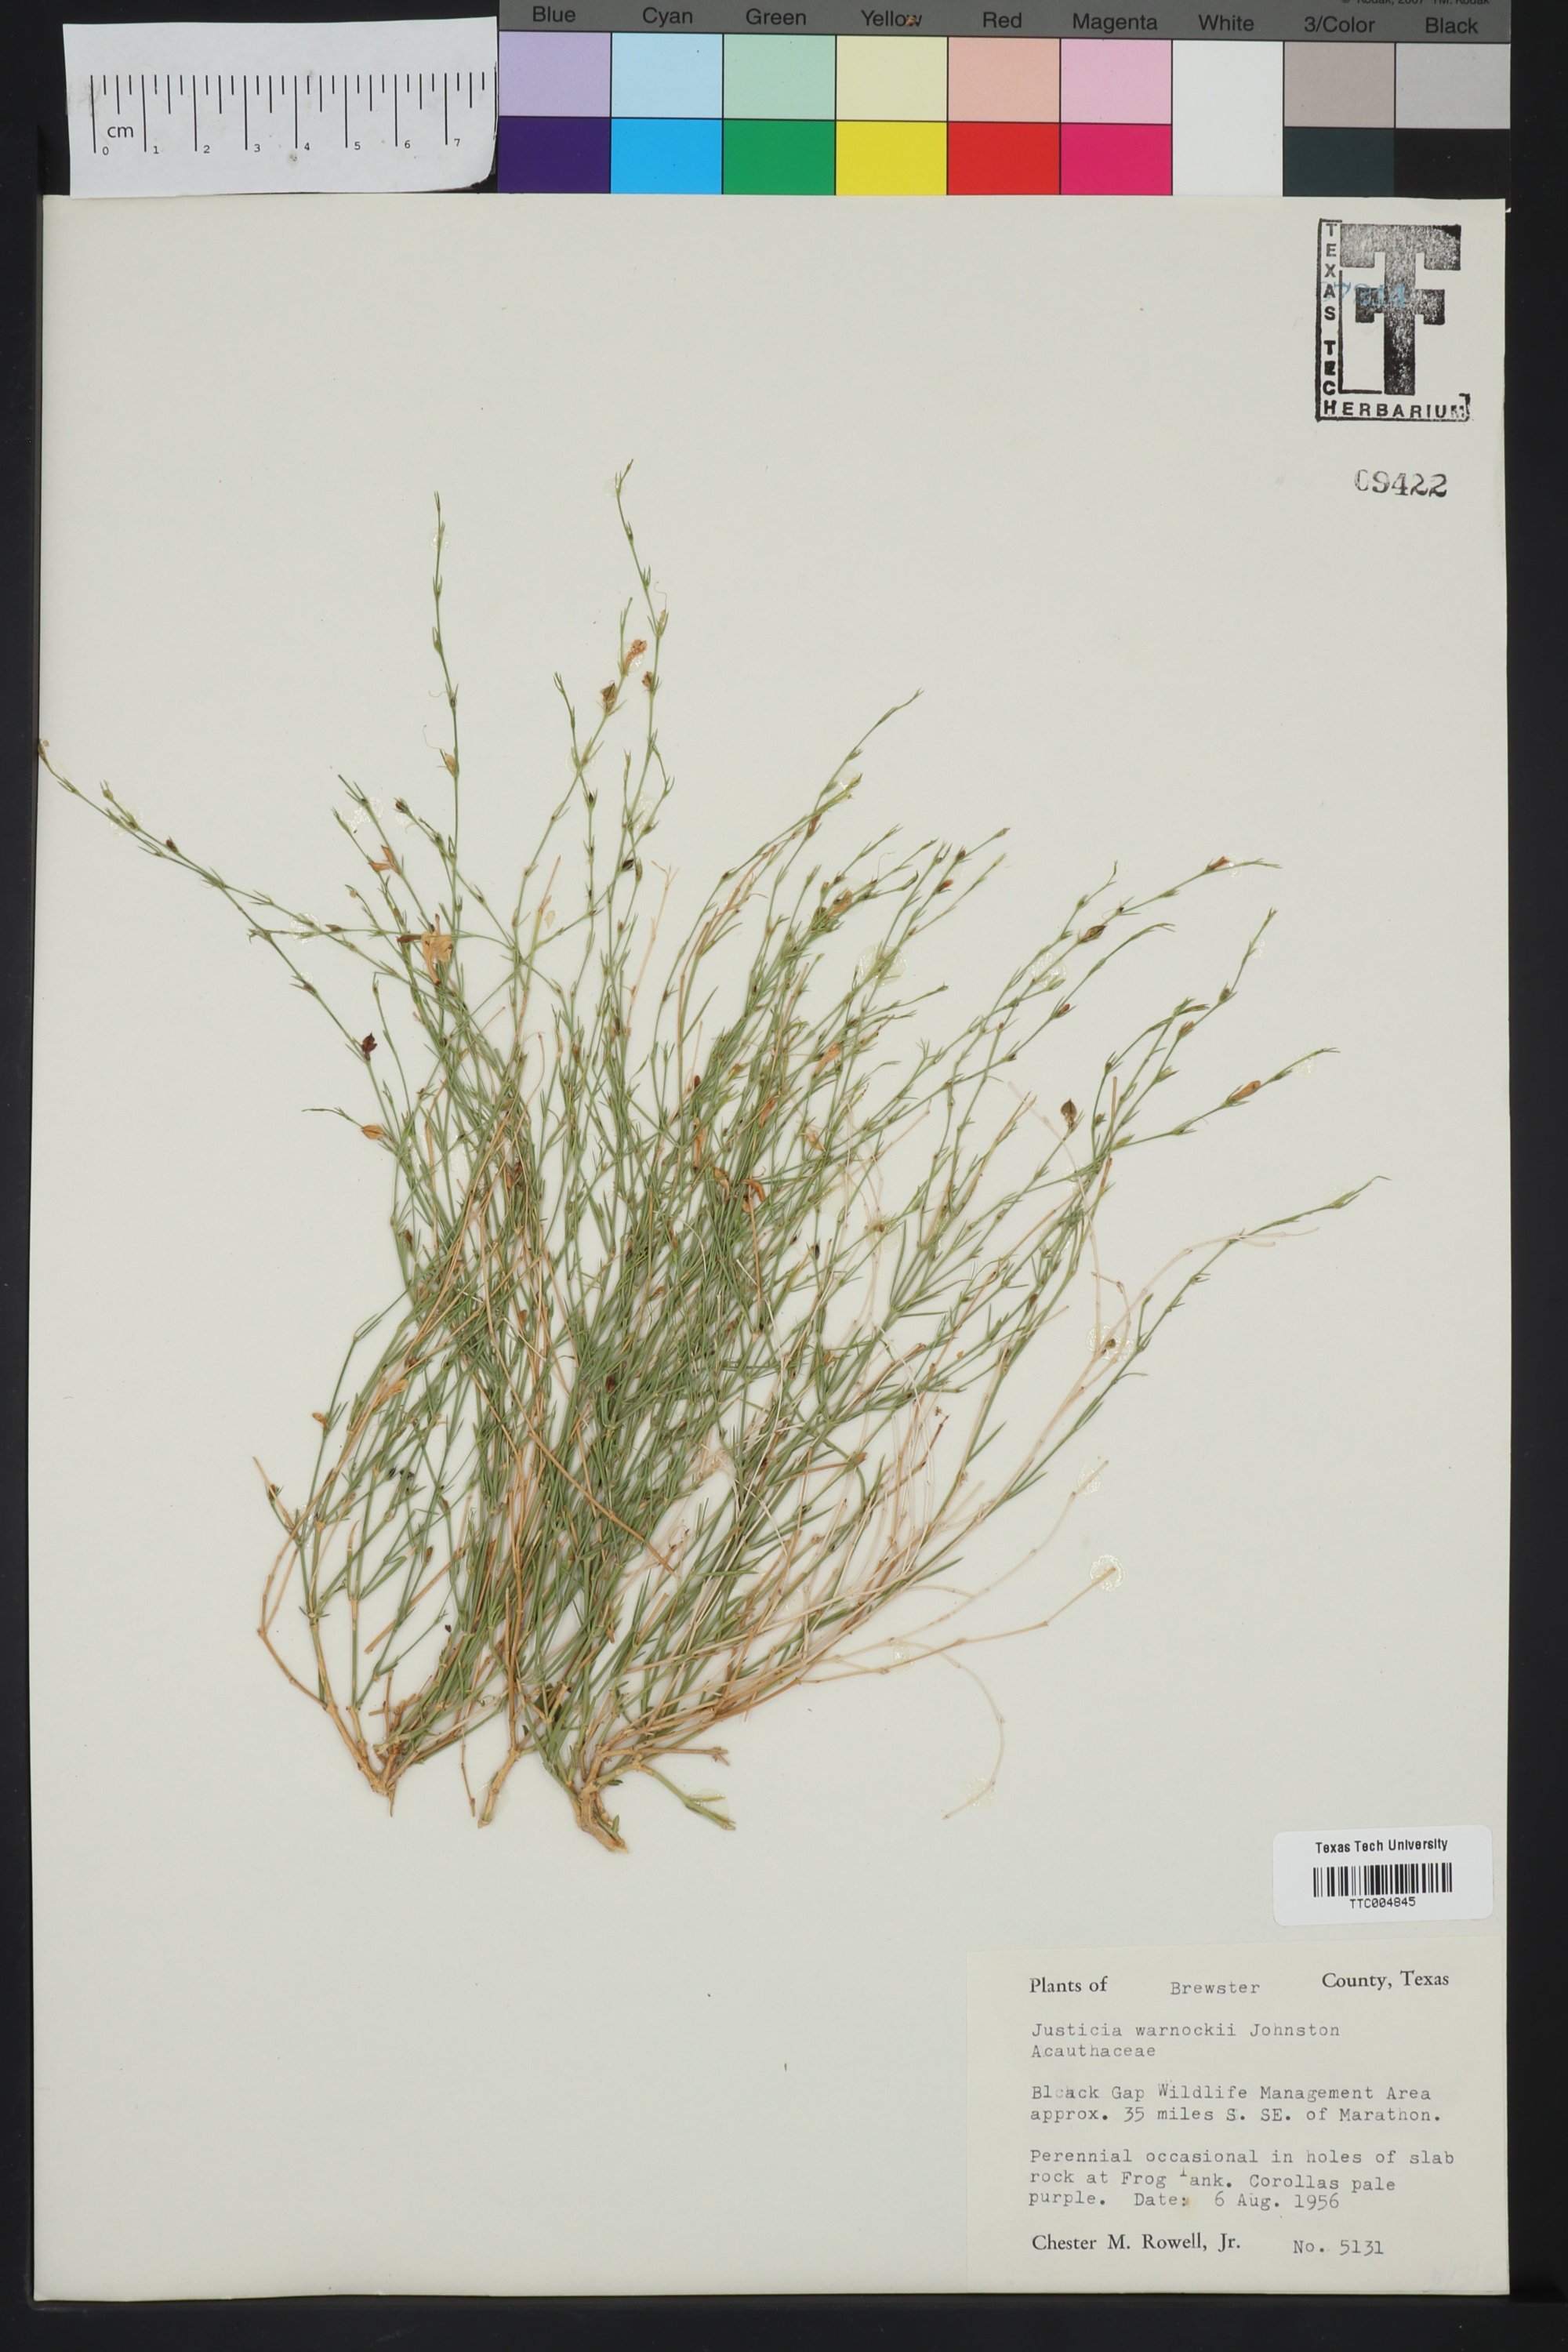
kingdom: Plantae
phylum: Tracheophyta
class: Magnoliopsida
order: Lamiales
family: Acanthaceae
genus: Justicia
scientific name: Justicia warnockii
